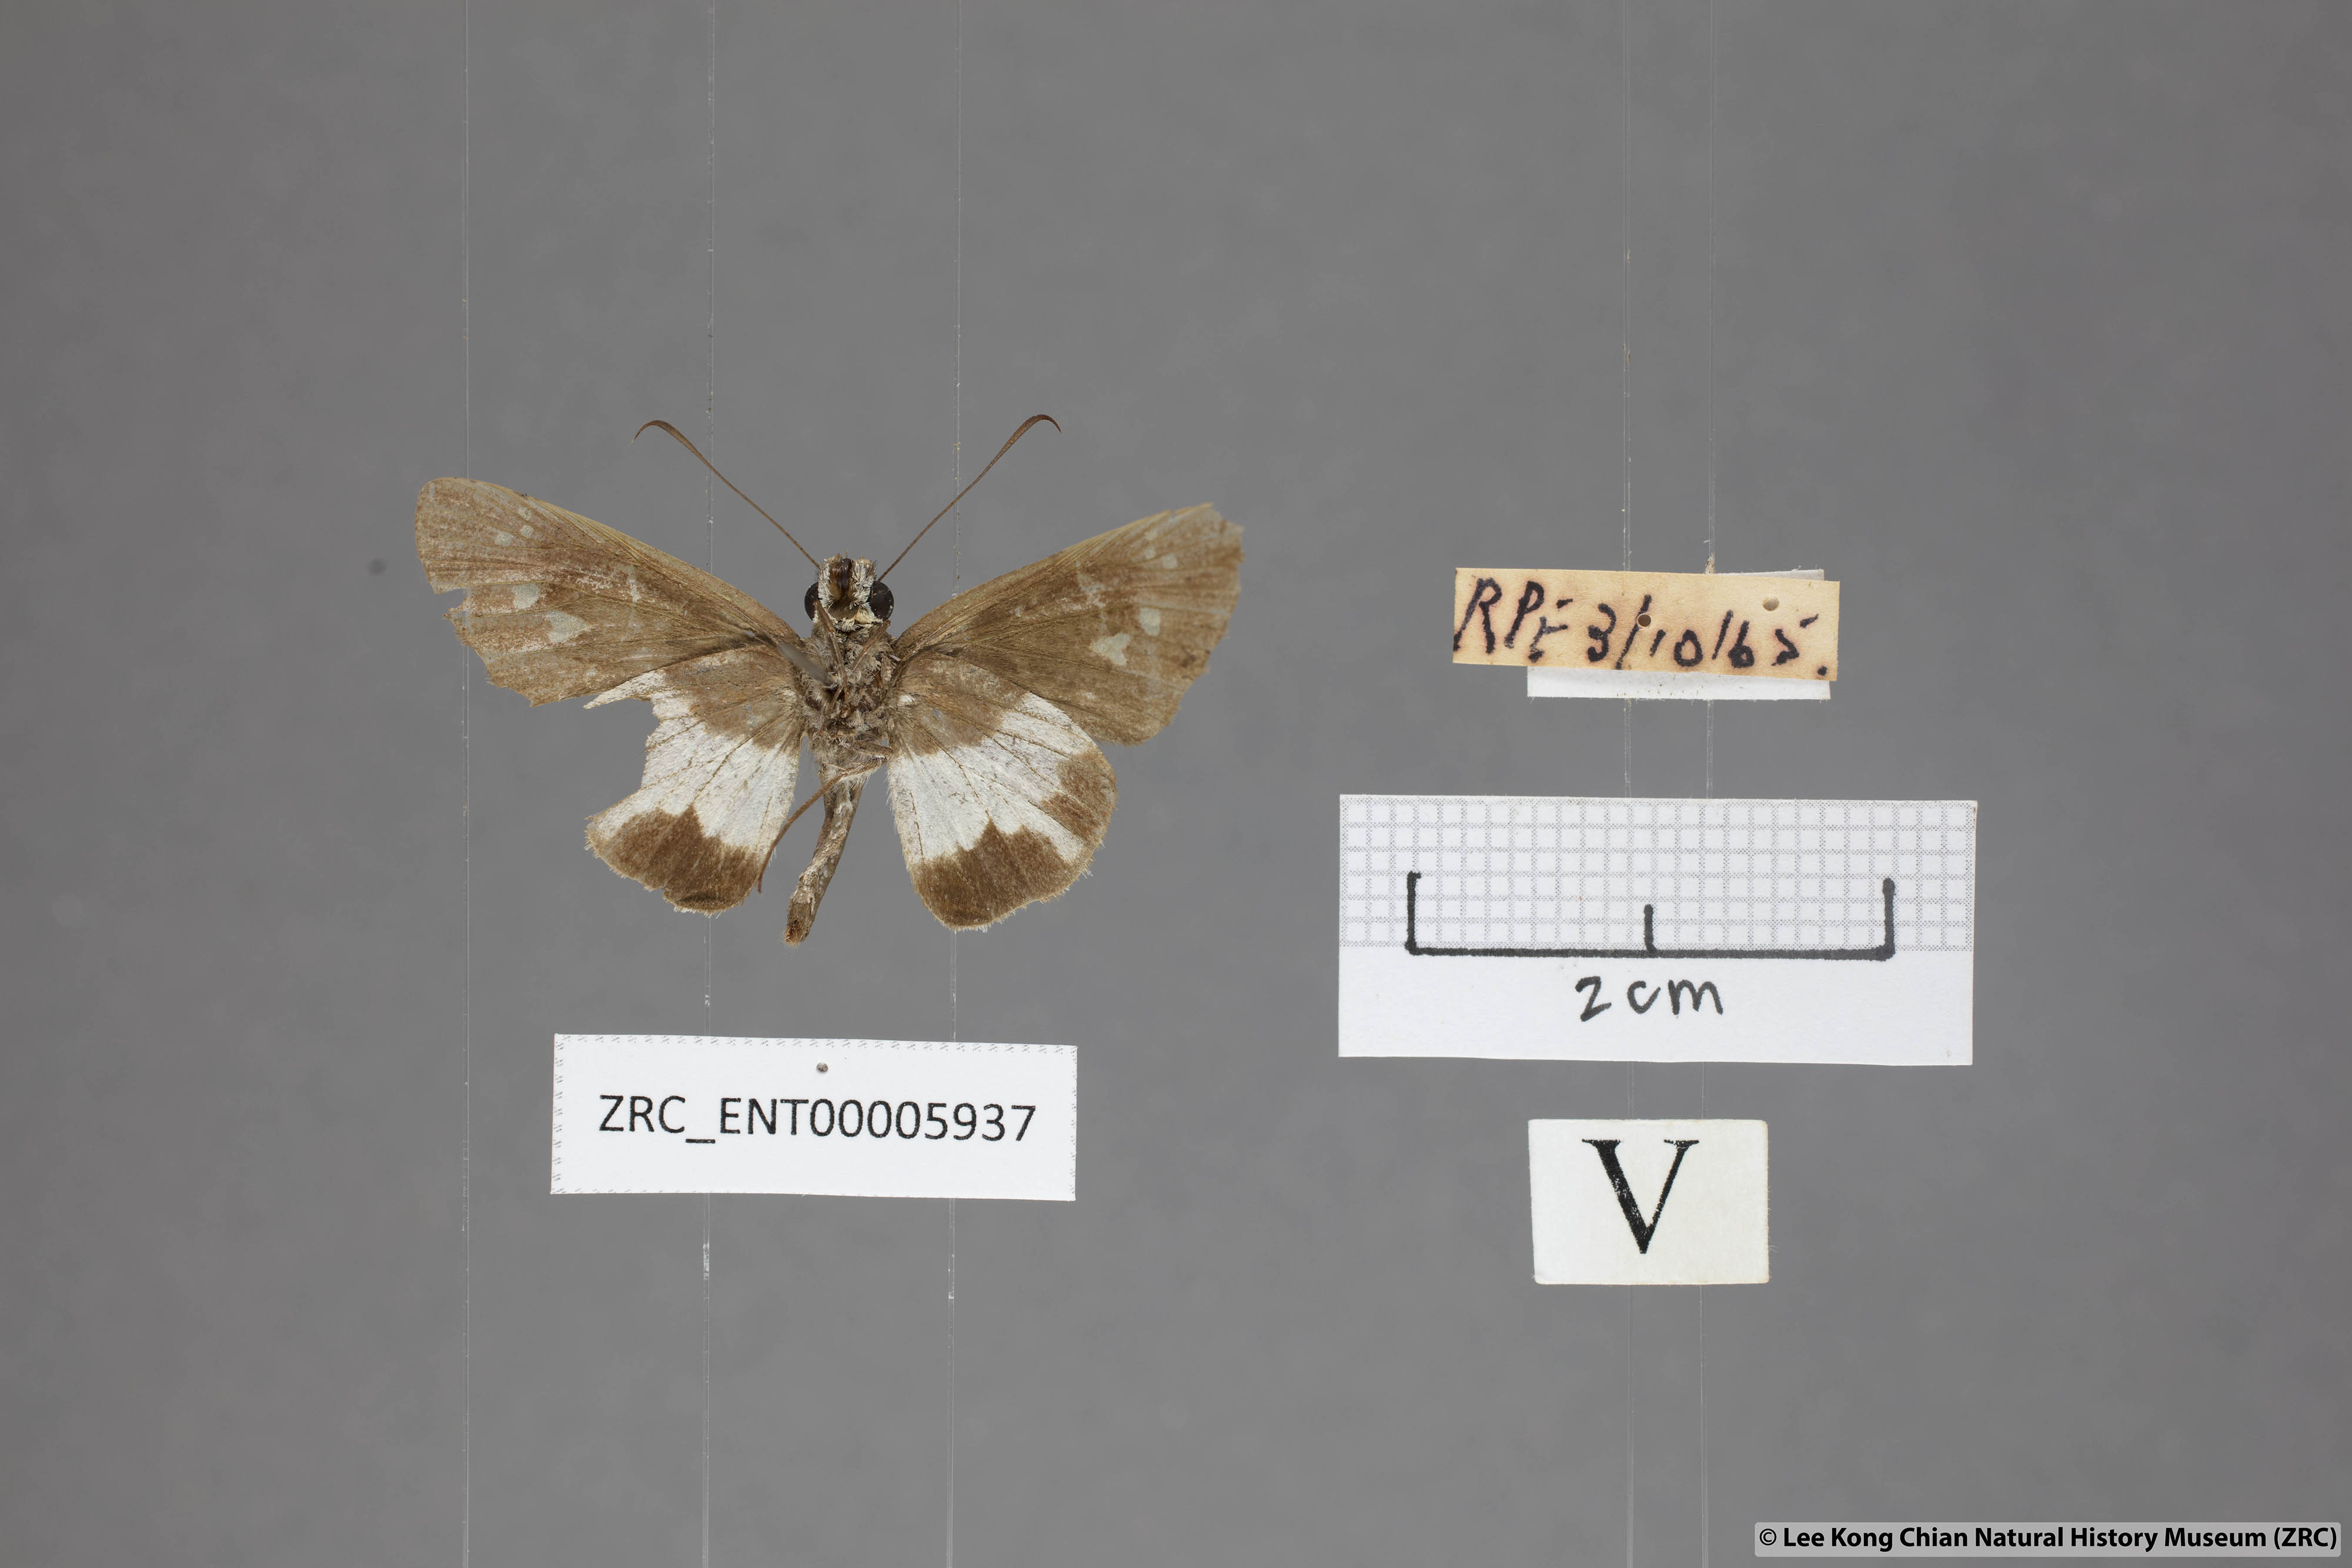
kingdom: Animalia
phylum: Arthropoda
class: Insecta
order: Lepidoptera
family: Hesperiidae
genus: Acerbas
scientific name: Acerbas anthea
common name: White palmer
